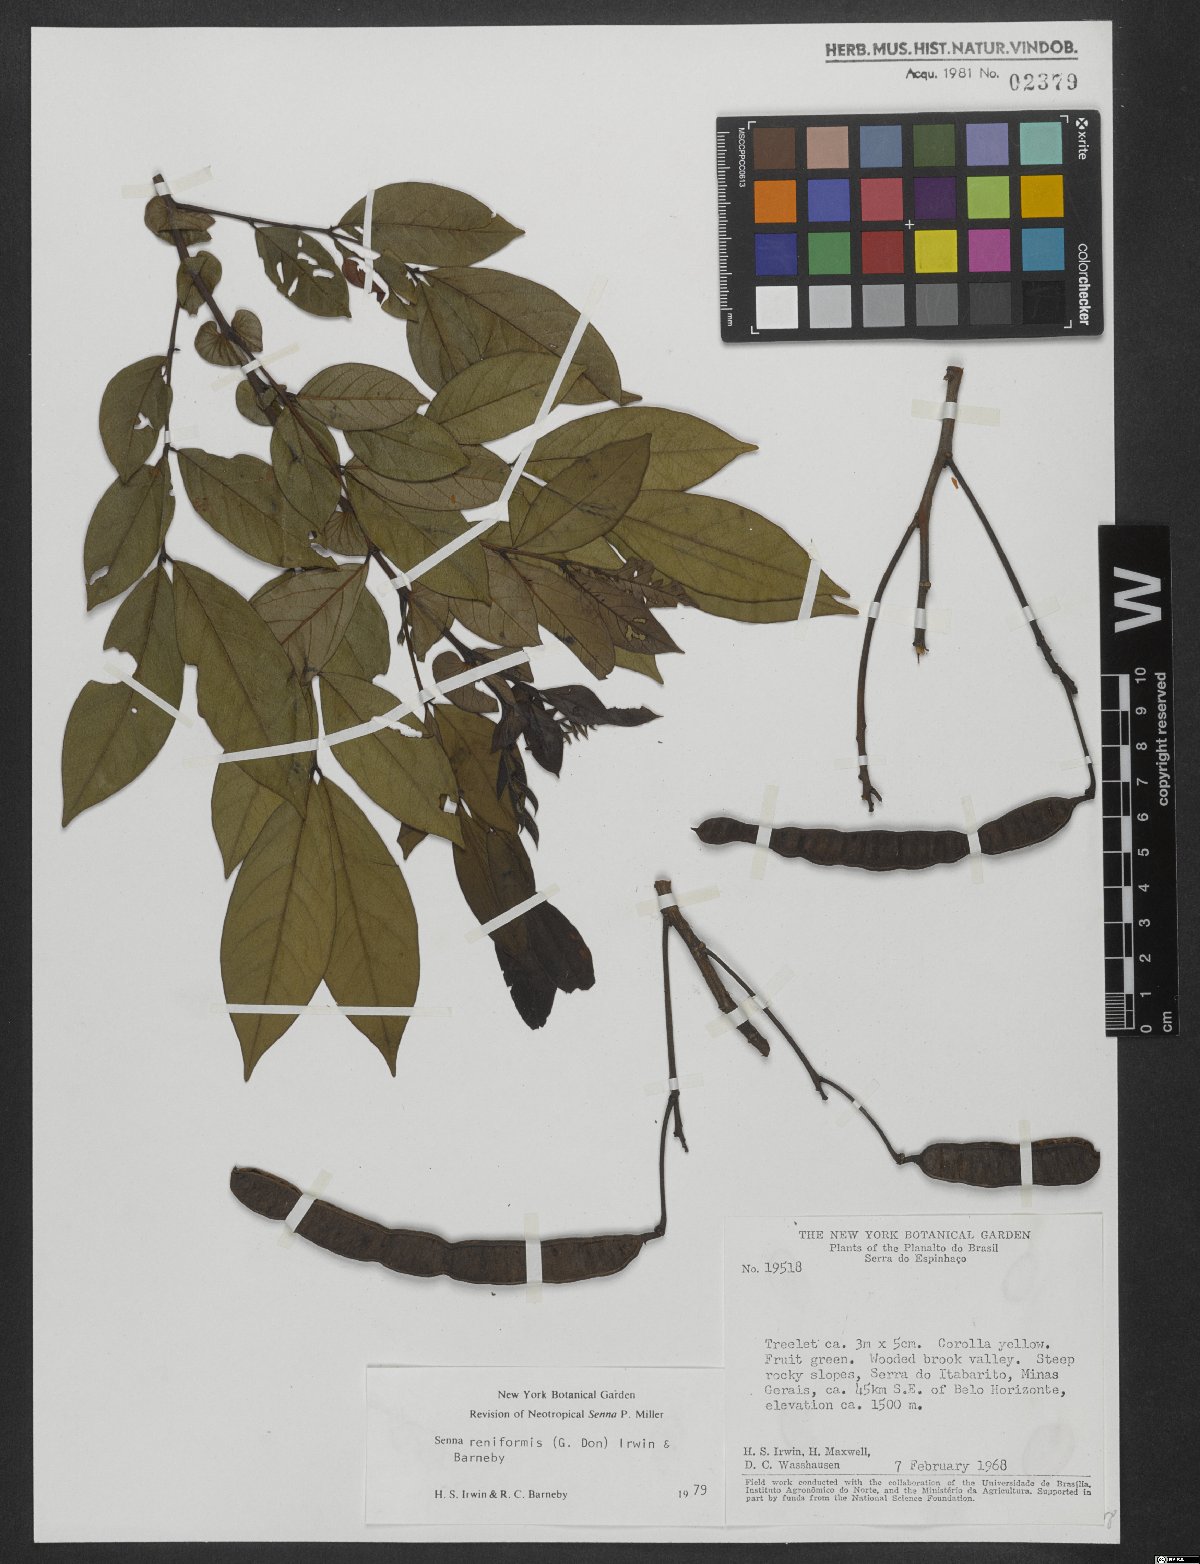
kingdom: Plantae
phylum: Tracheophyta
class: Magnoliopsida
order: Fabales
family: Fabaceae
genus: Senna
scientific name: Senna reniformis
